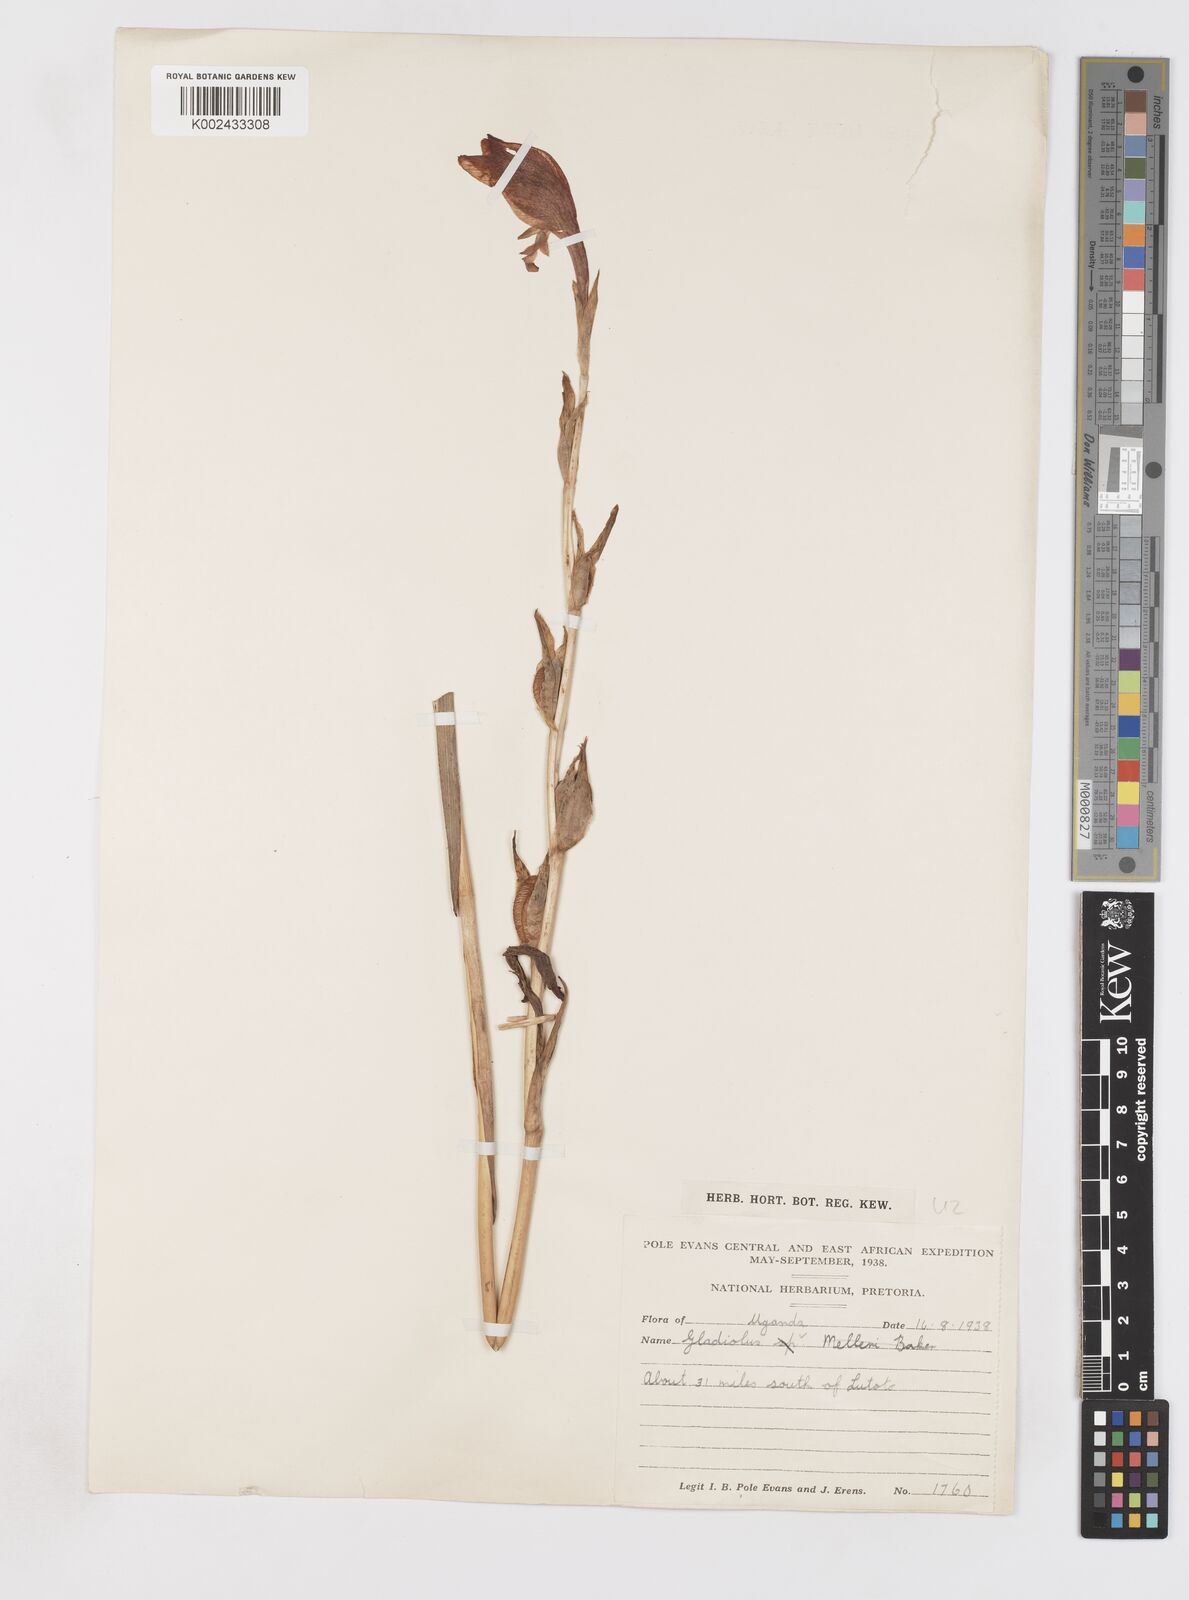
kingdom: Plantae
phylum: Tracheophyta
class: Liliopsida
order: Asparagales
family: Iridaceae
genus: Gladiolus
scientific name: Gladiolus dalenii
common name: Cornflag
